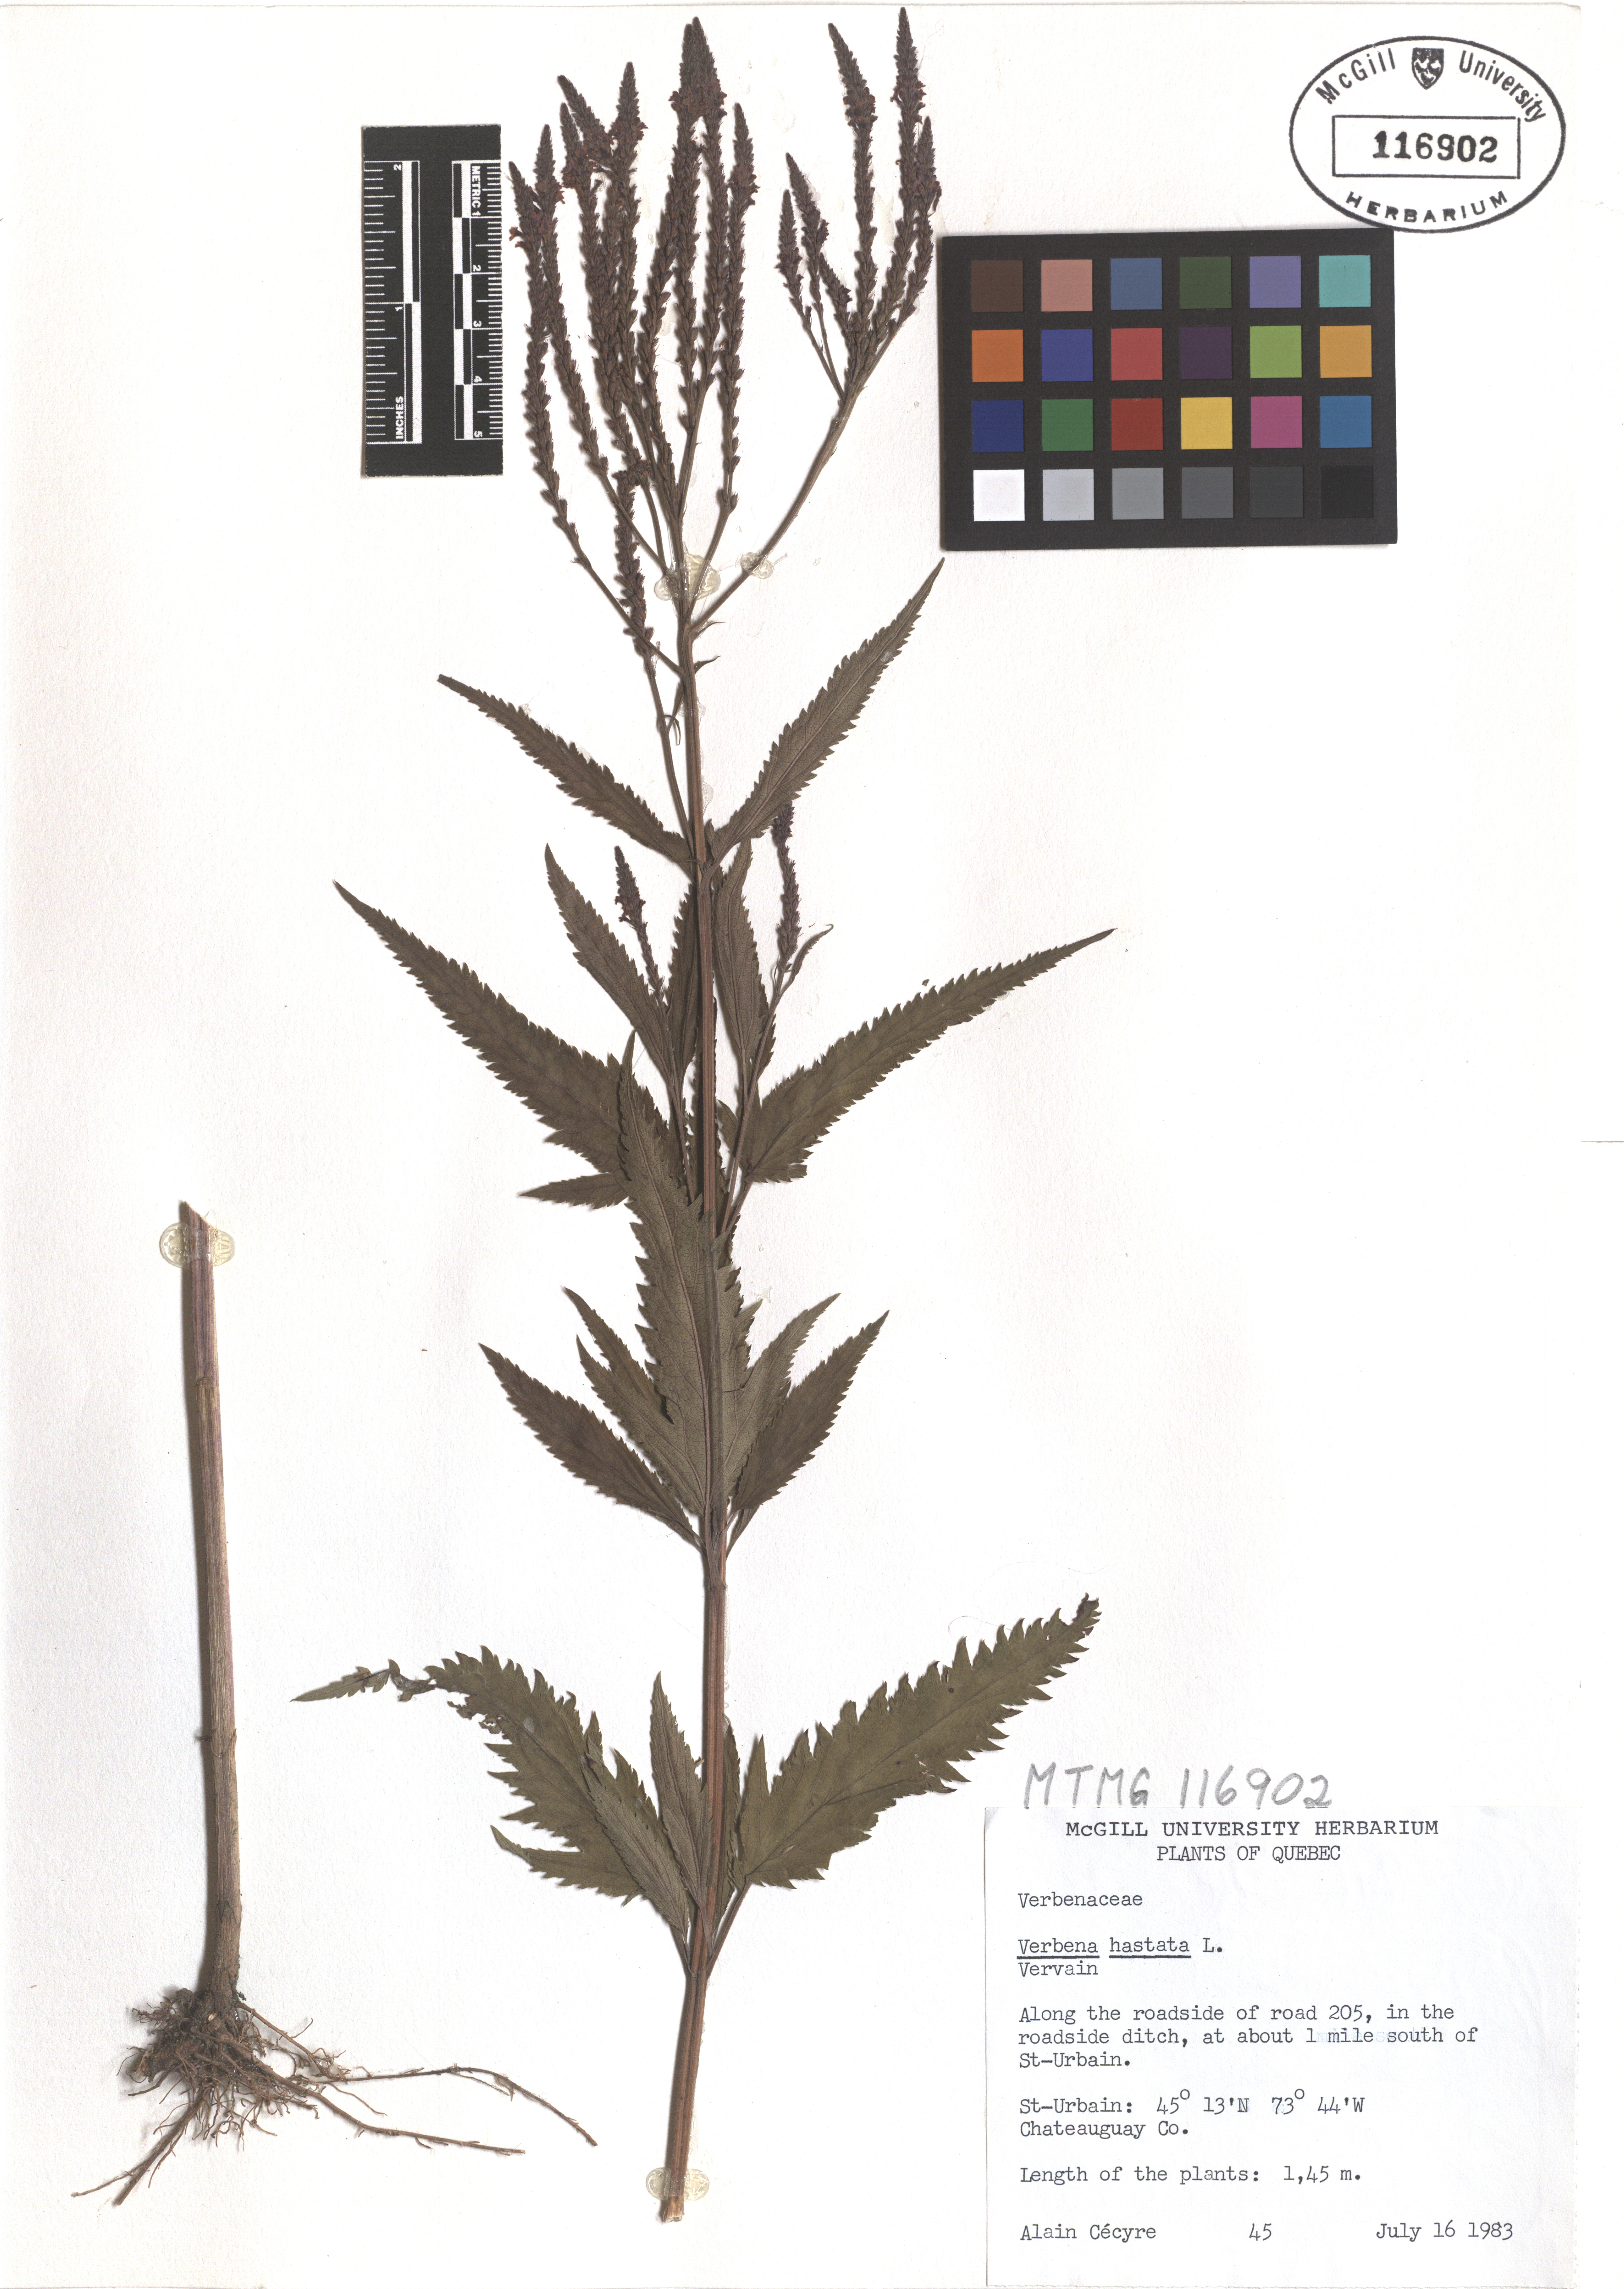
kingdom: Plantae
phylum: Tracheophyta
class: Magnoliopsida
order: Lamiales
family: Verbenaceae
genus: Verbena
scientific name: Verbena hastata
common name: American blue vervain
